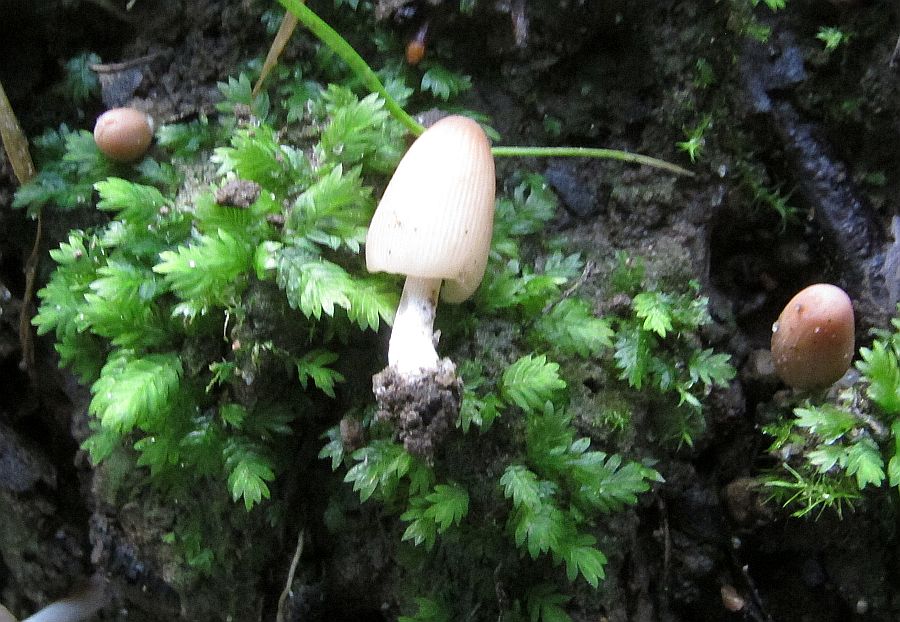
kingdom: Fungi
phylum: Basidiomycota
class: Agaricomycetes
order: Agaricales
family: Psathyrellaceae
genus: Parasola
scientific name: Parasola kuehneri
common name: skygge-hjulhat
